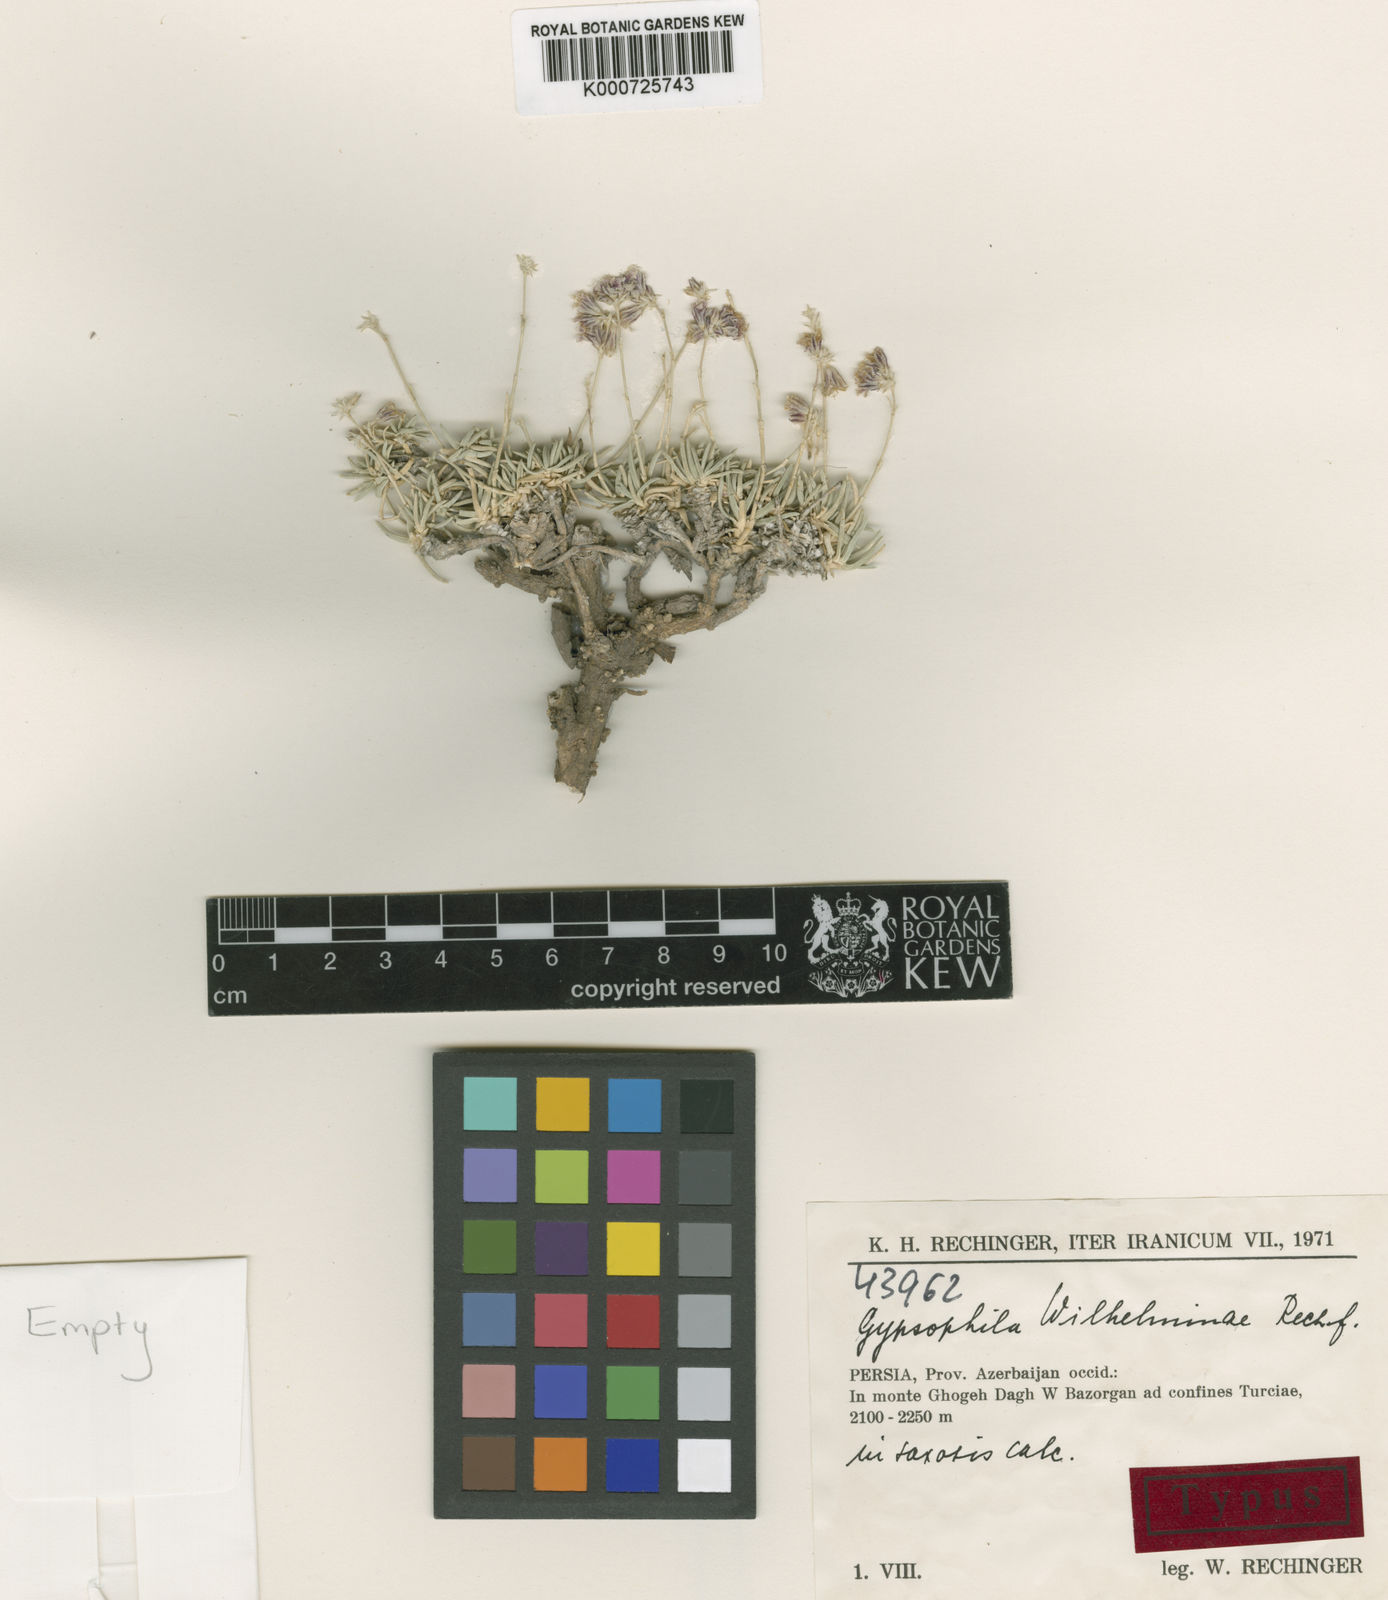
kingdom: Plantae
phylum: Tracheophyta
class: Magnoliopsida
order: Caryophyllales
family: Caryophyllaceae
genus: Gypsophila
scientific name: Gypsophila wilhelminae
